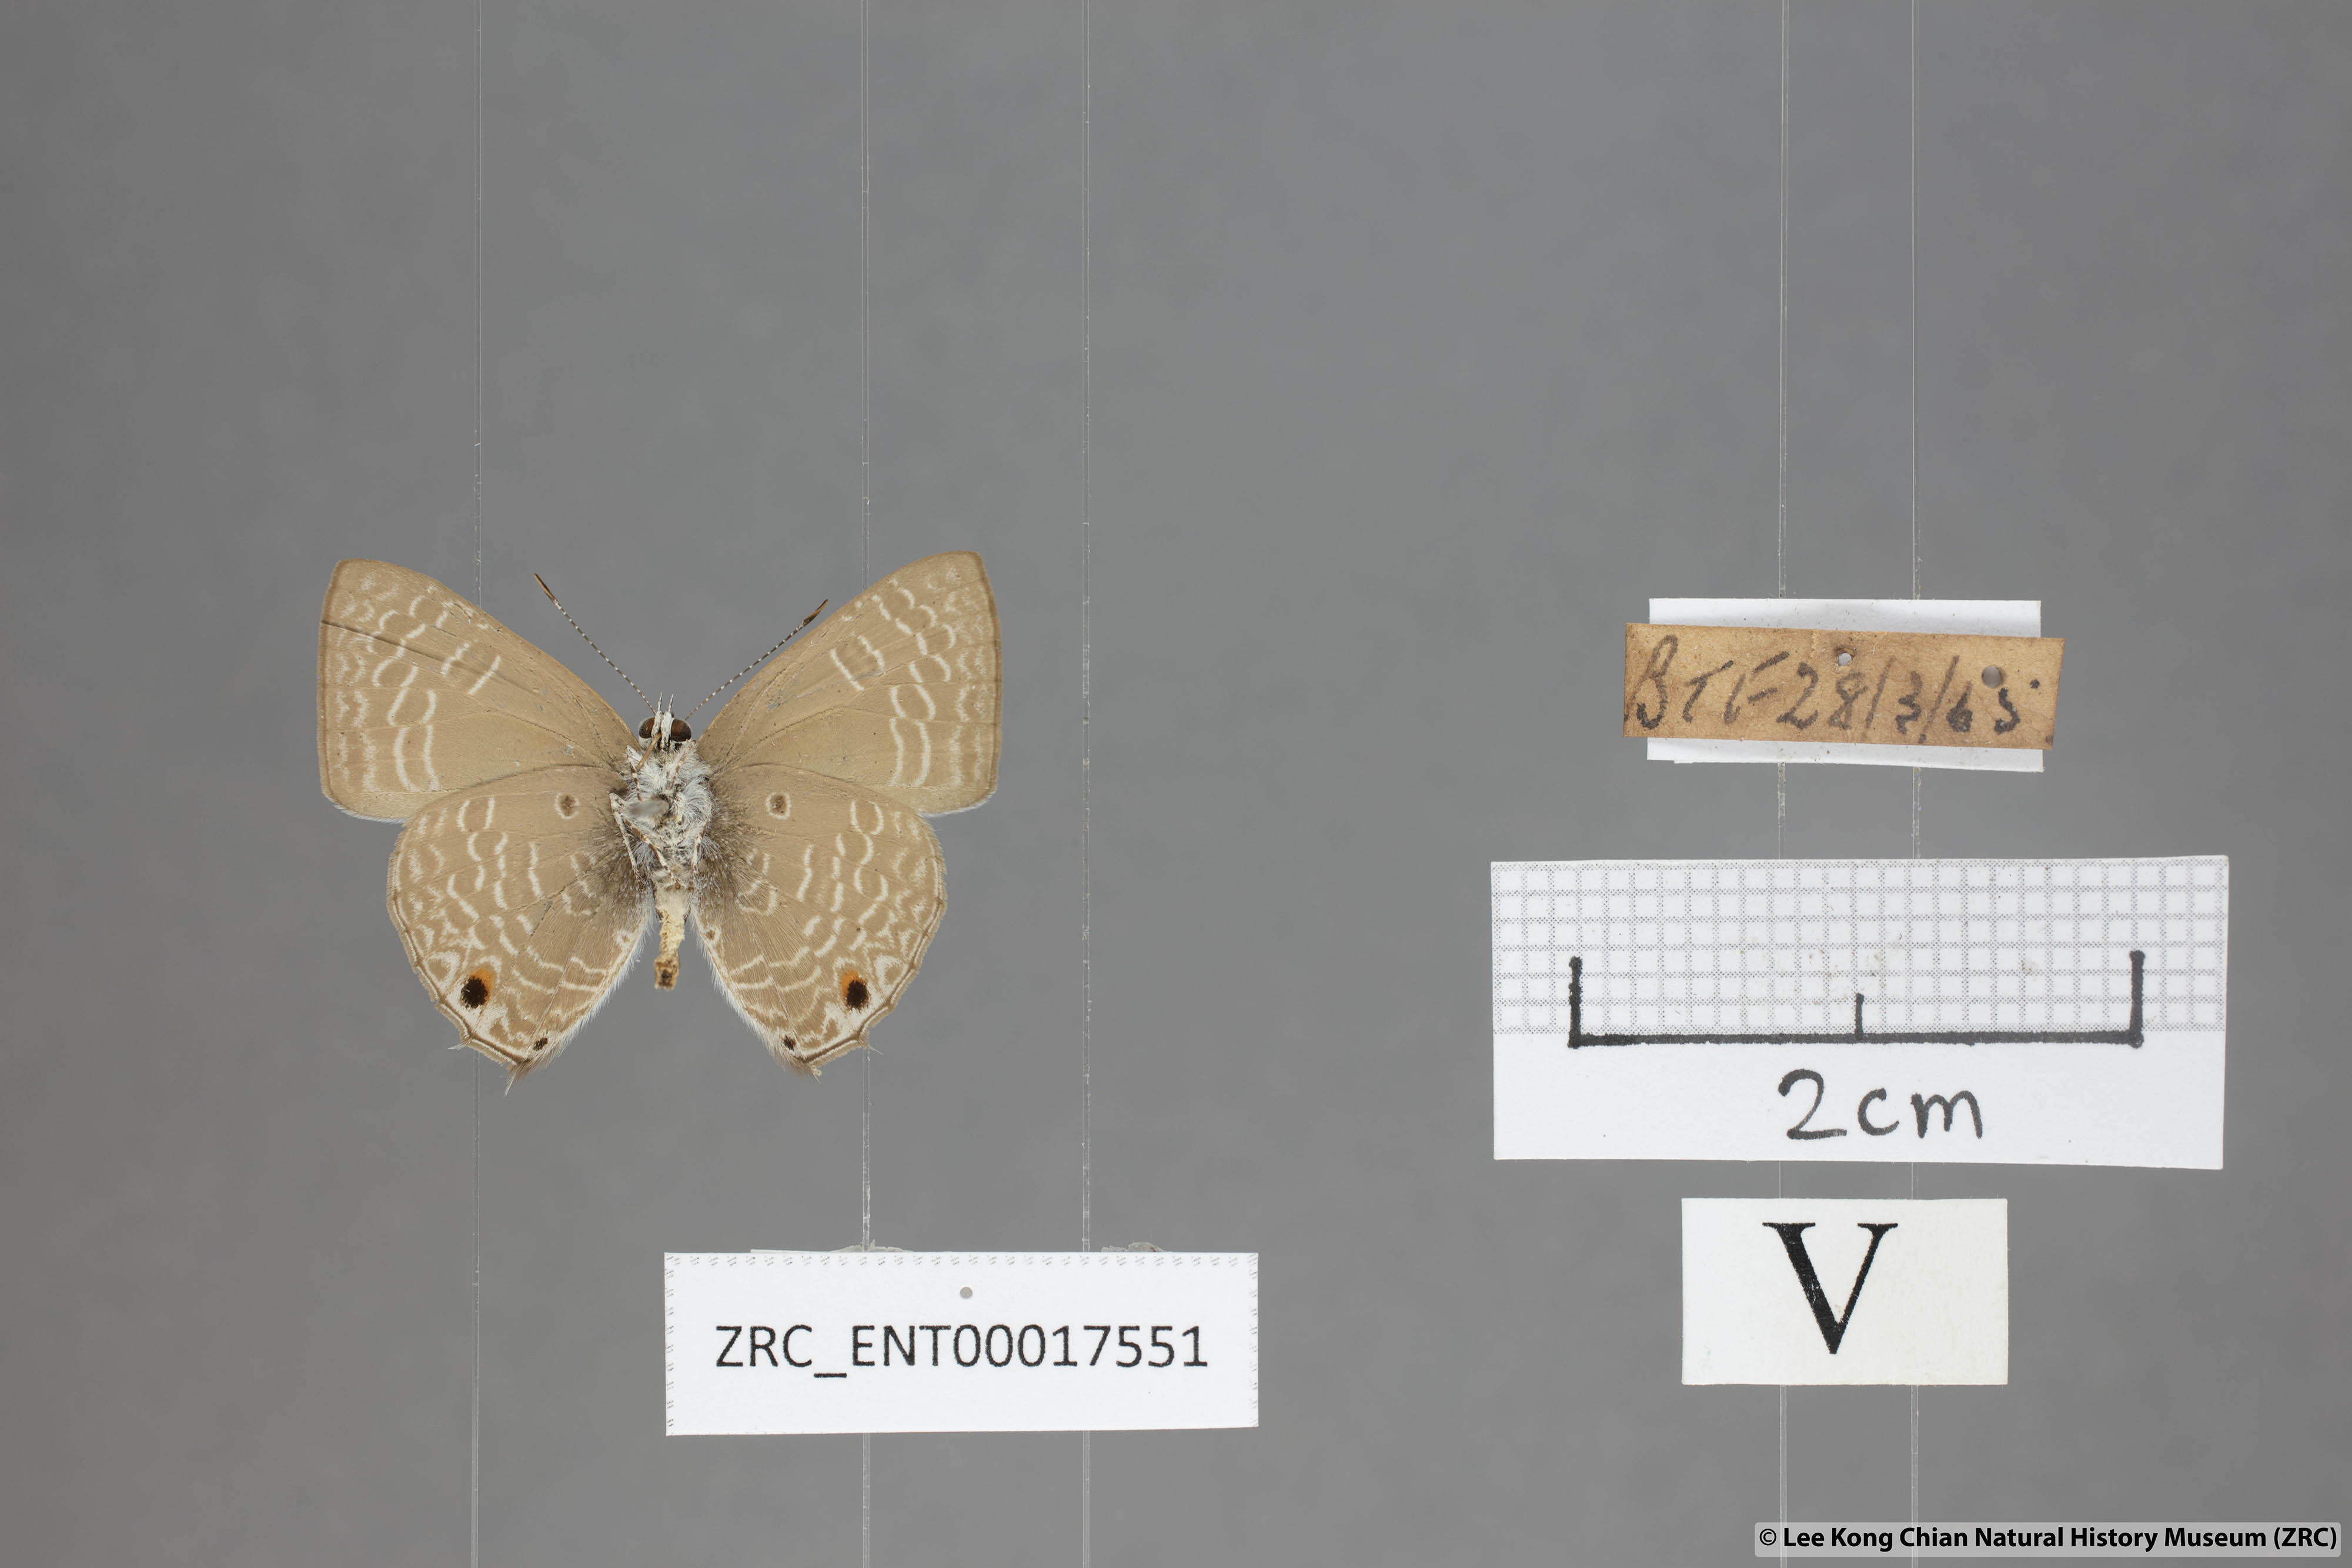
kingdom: Animalia
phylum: Arthropoda
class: Insecta
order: Lepidoptera
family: Lycaenidae
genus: Anthene
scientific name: Anthene lycaenoides
